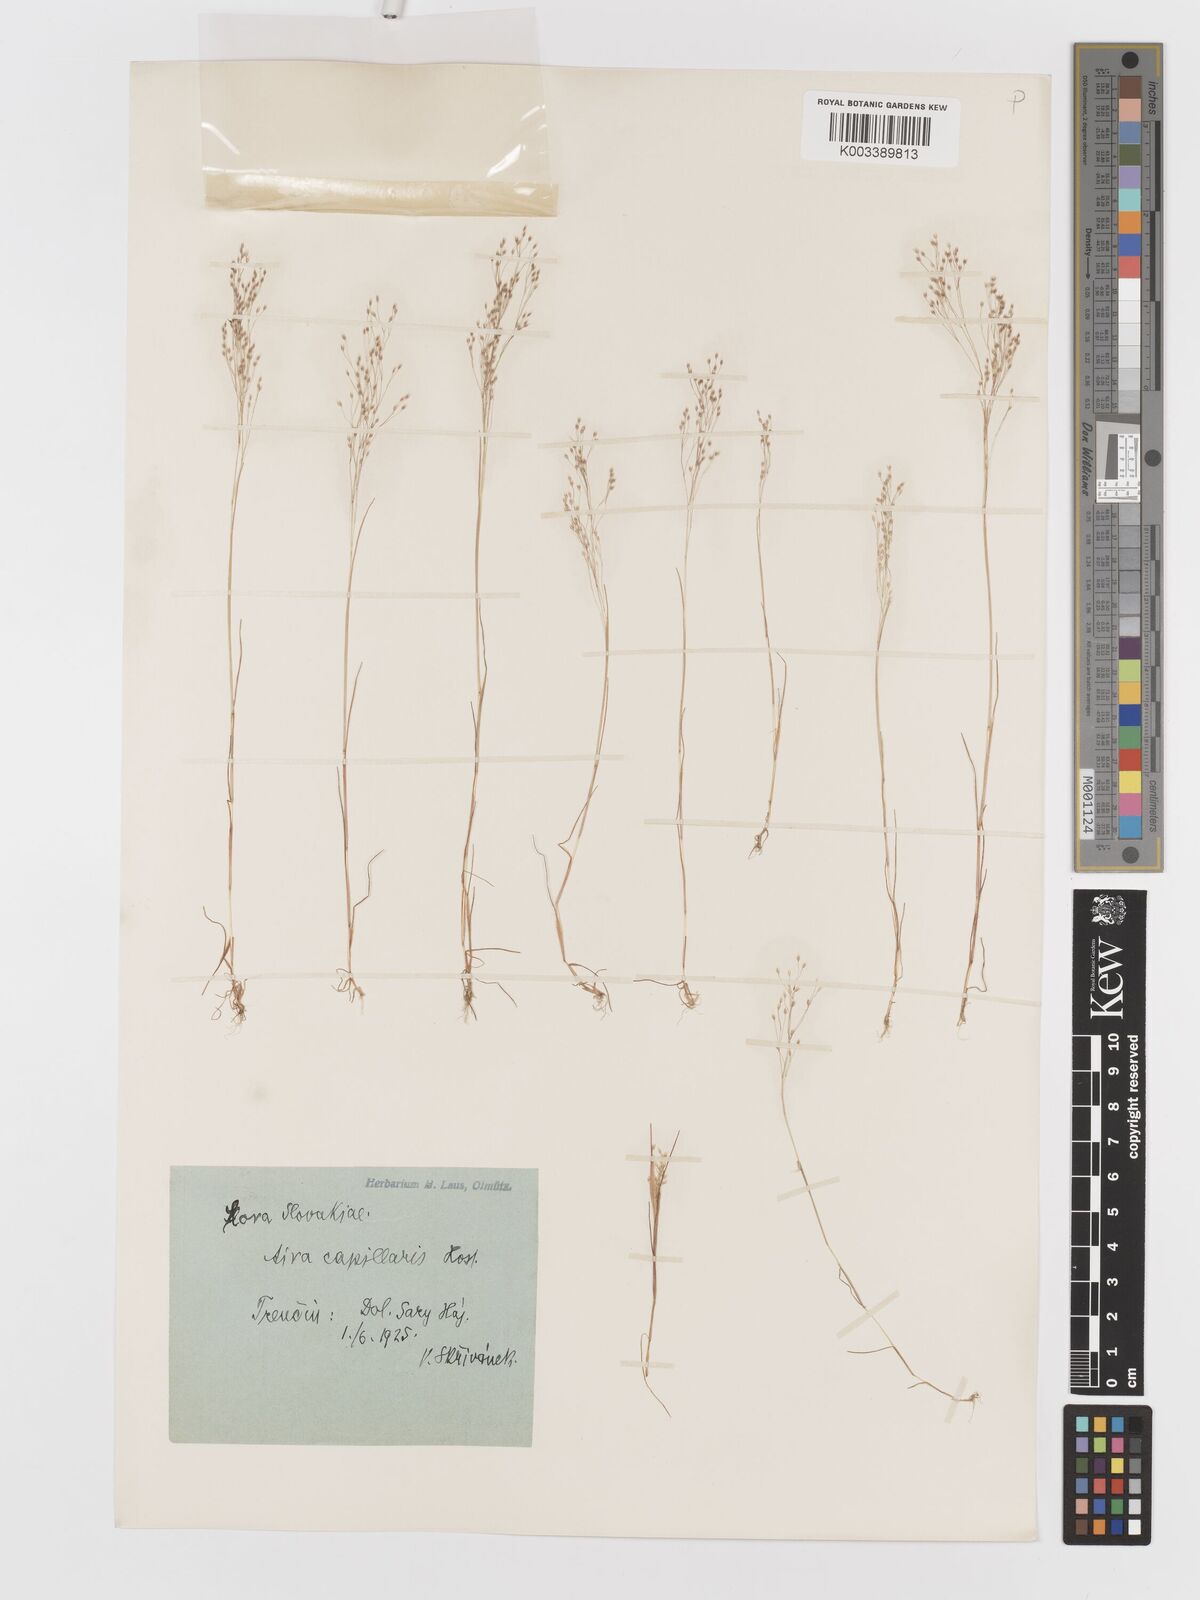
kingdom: Plantae
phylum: Tracheophyta
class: Liliopsida
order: Poales
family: Poaceae
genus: Aira
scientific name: Aira elegans
